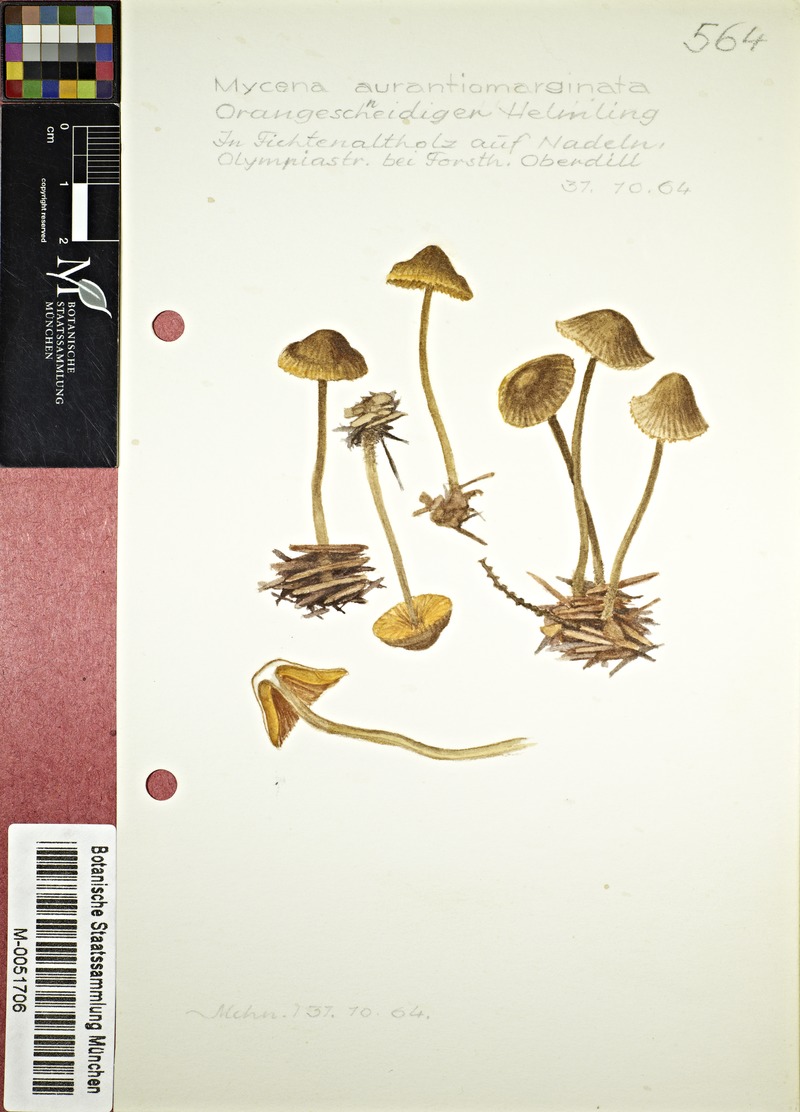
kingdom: Fungi
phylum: Basidiomycota
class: Agaricomycetes
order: Agaricales
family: Mycenaceae
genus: Mycena
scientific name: Mycena aurantiomarginata
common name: Golden edge bonnet
